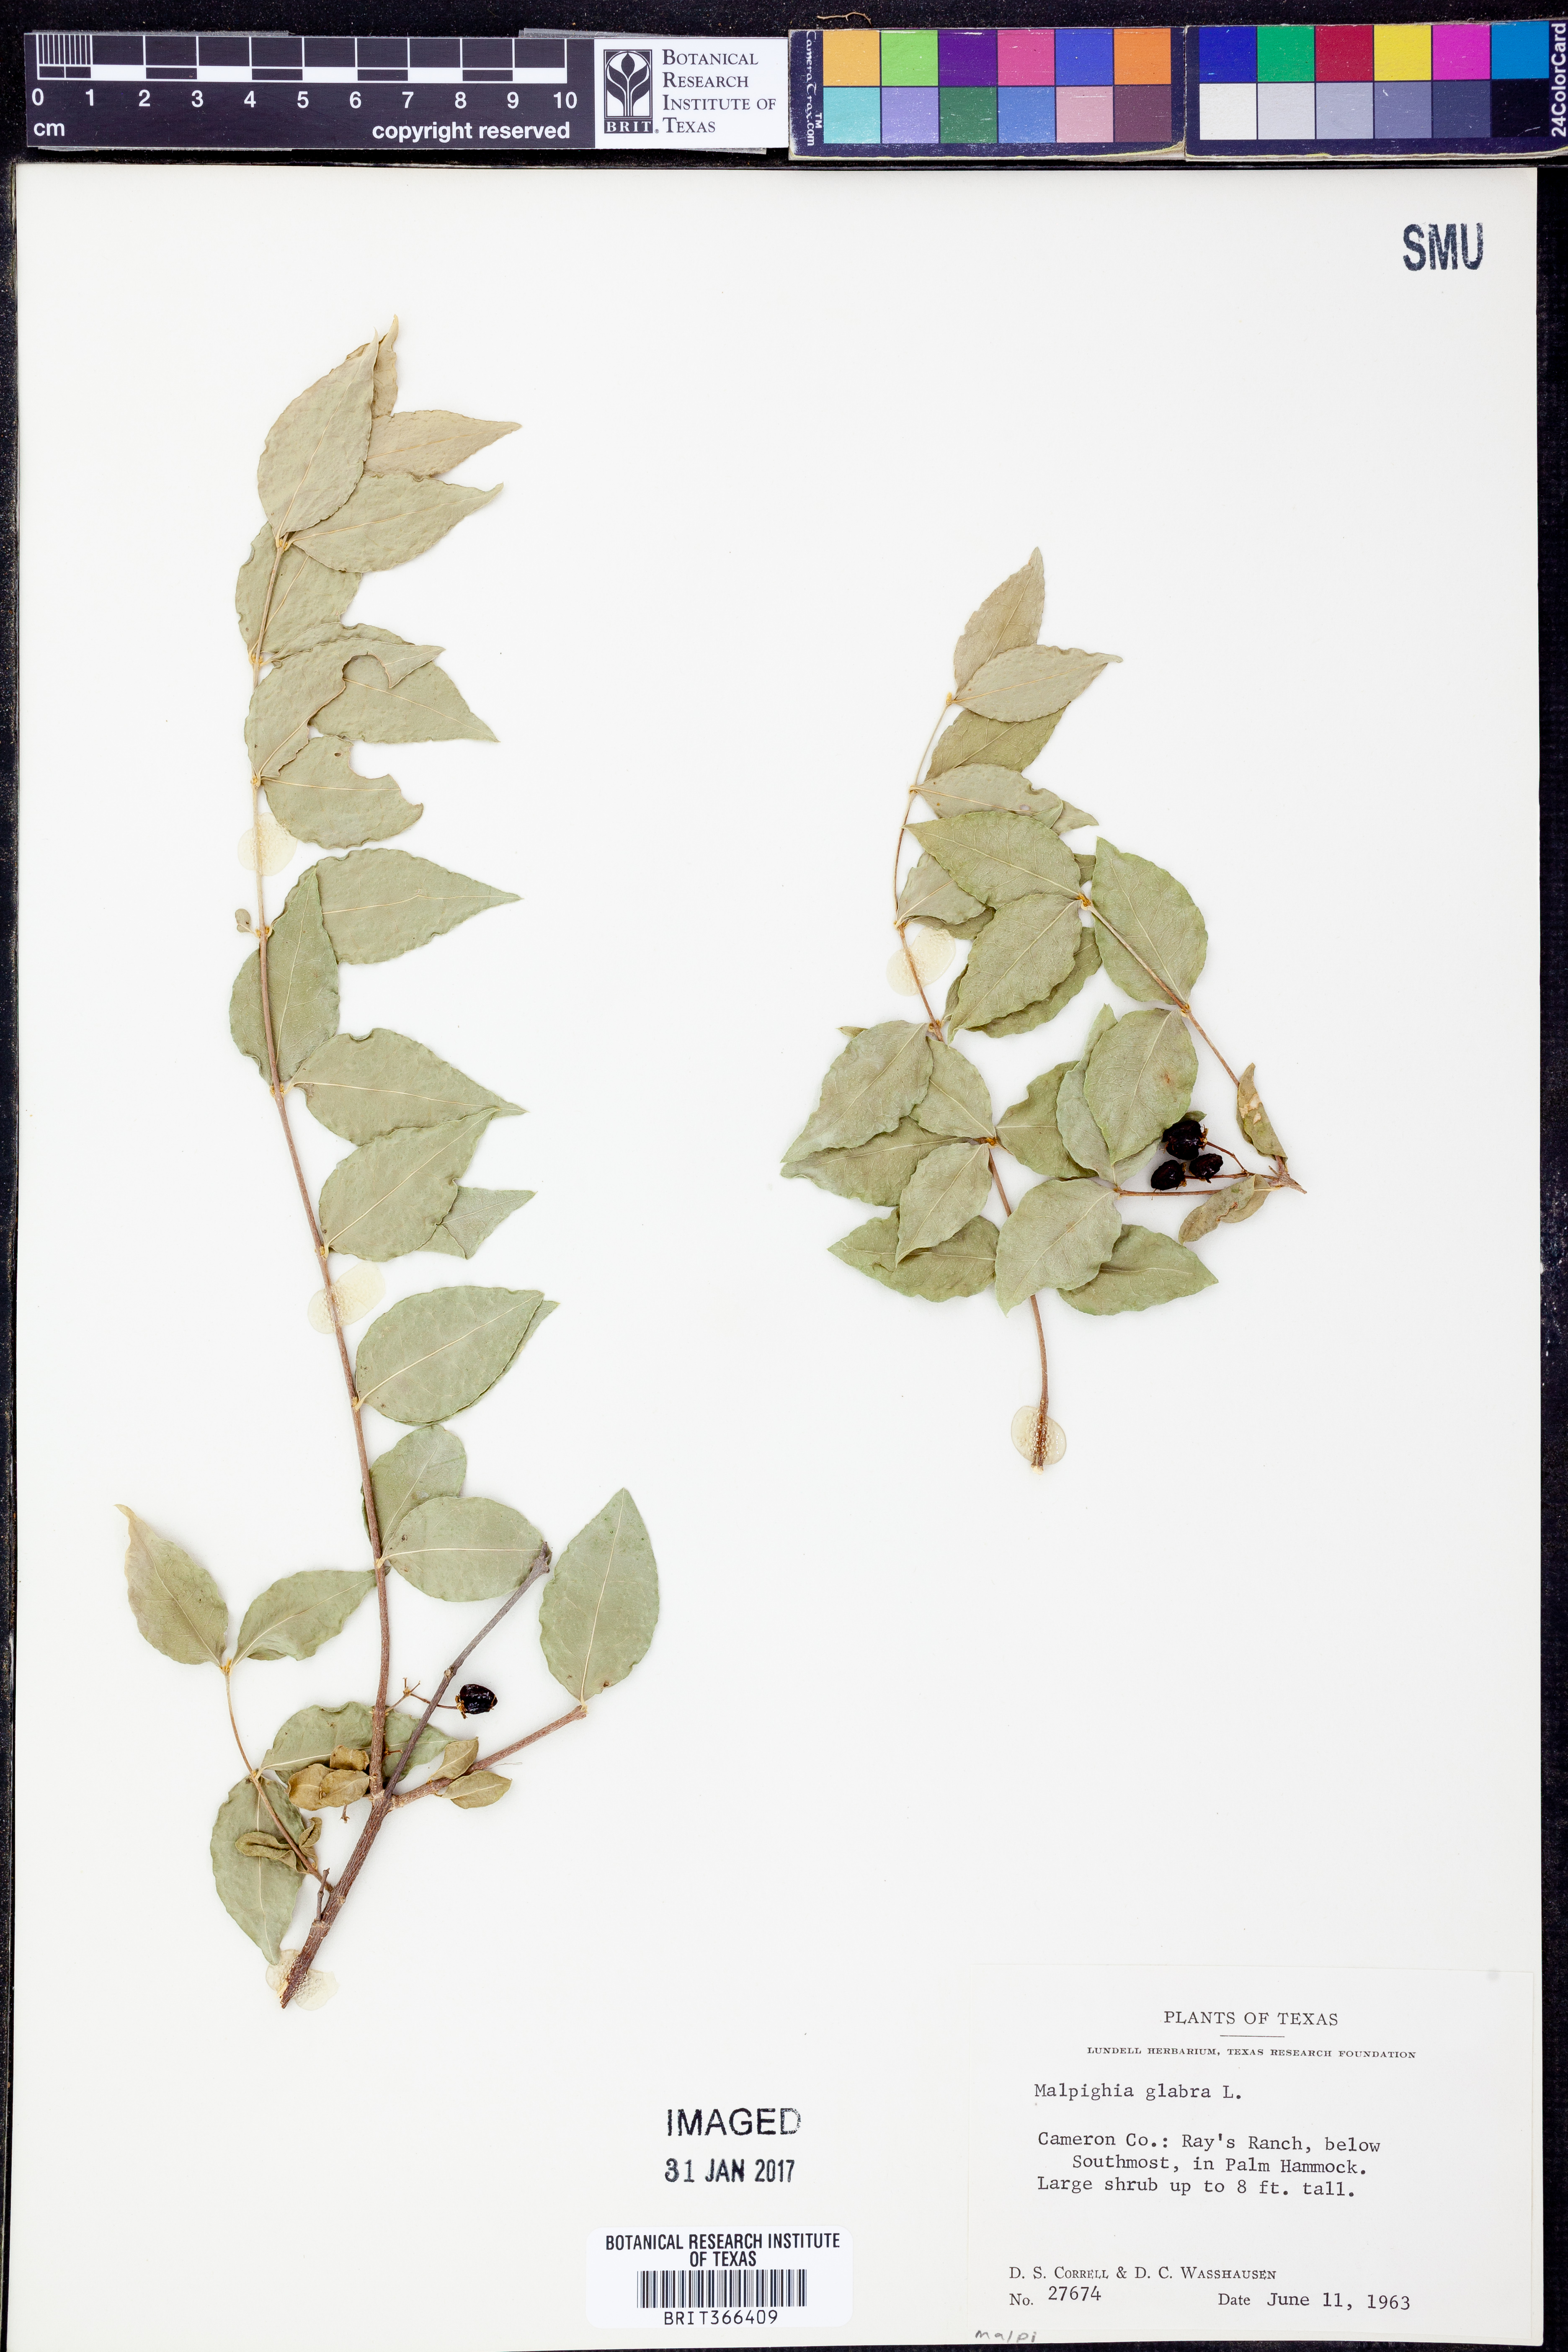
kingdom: Plantae
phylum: Tracheophyta
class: Magnoliopsida
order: Malpighiales
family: Malpighiaceae
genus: Malpighia
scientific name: Malpighia glabra
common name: Barbados cherry
